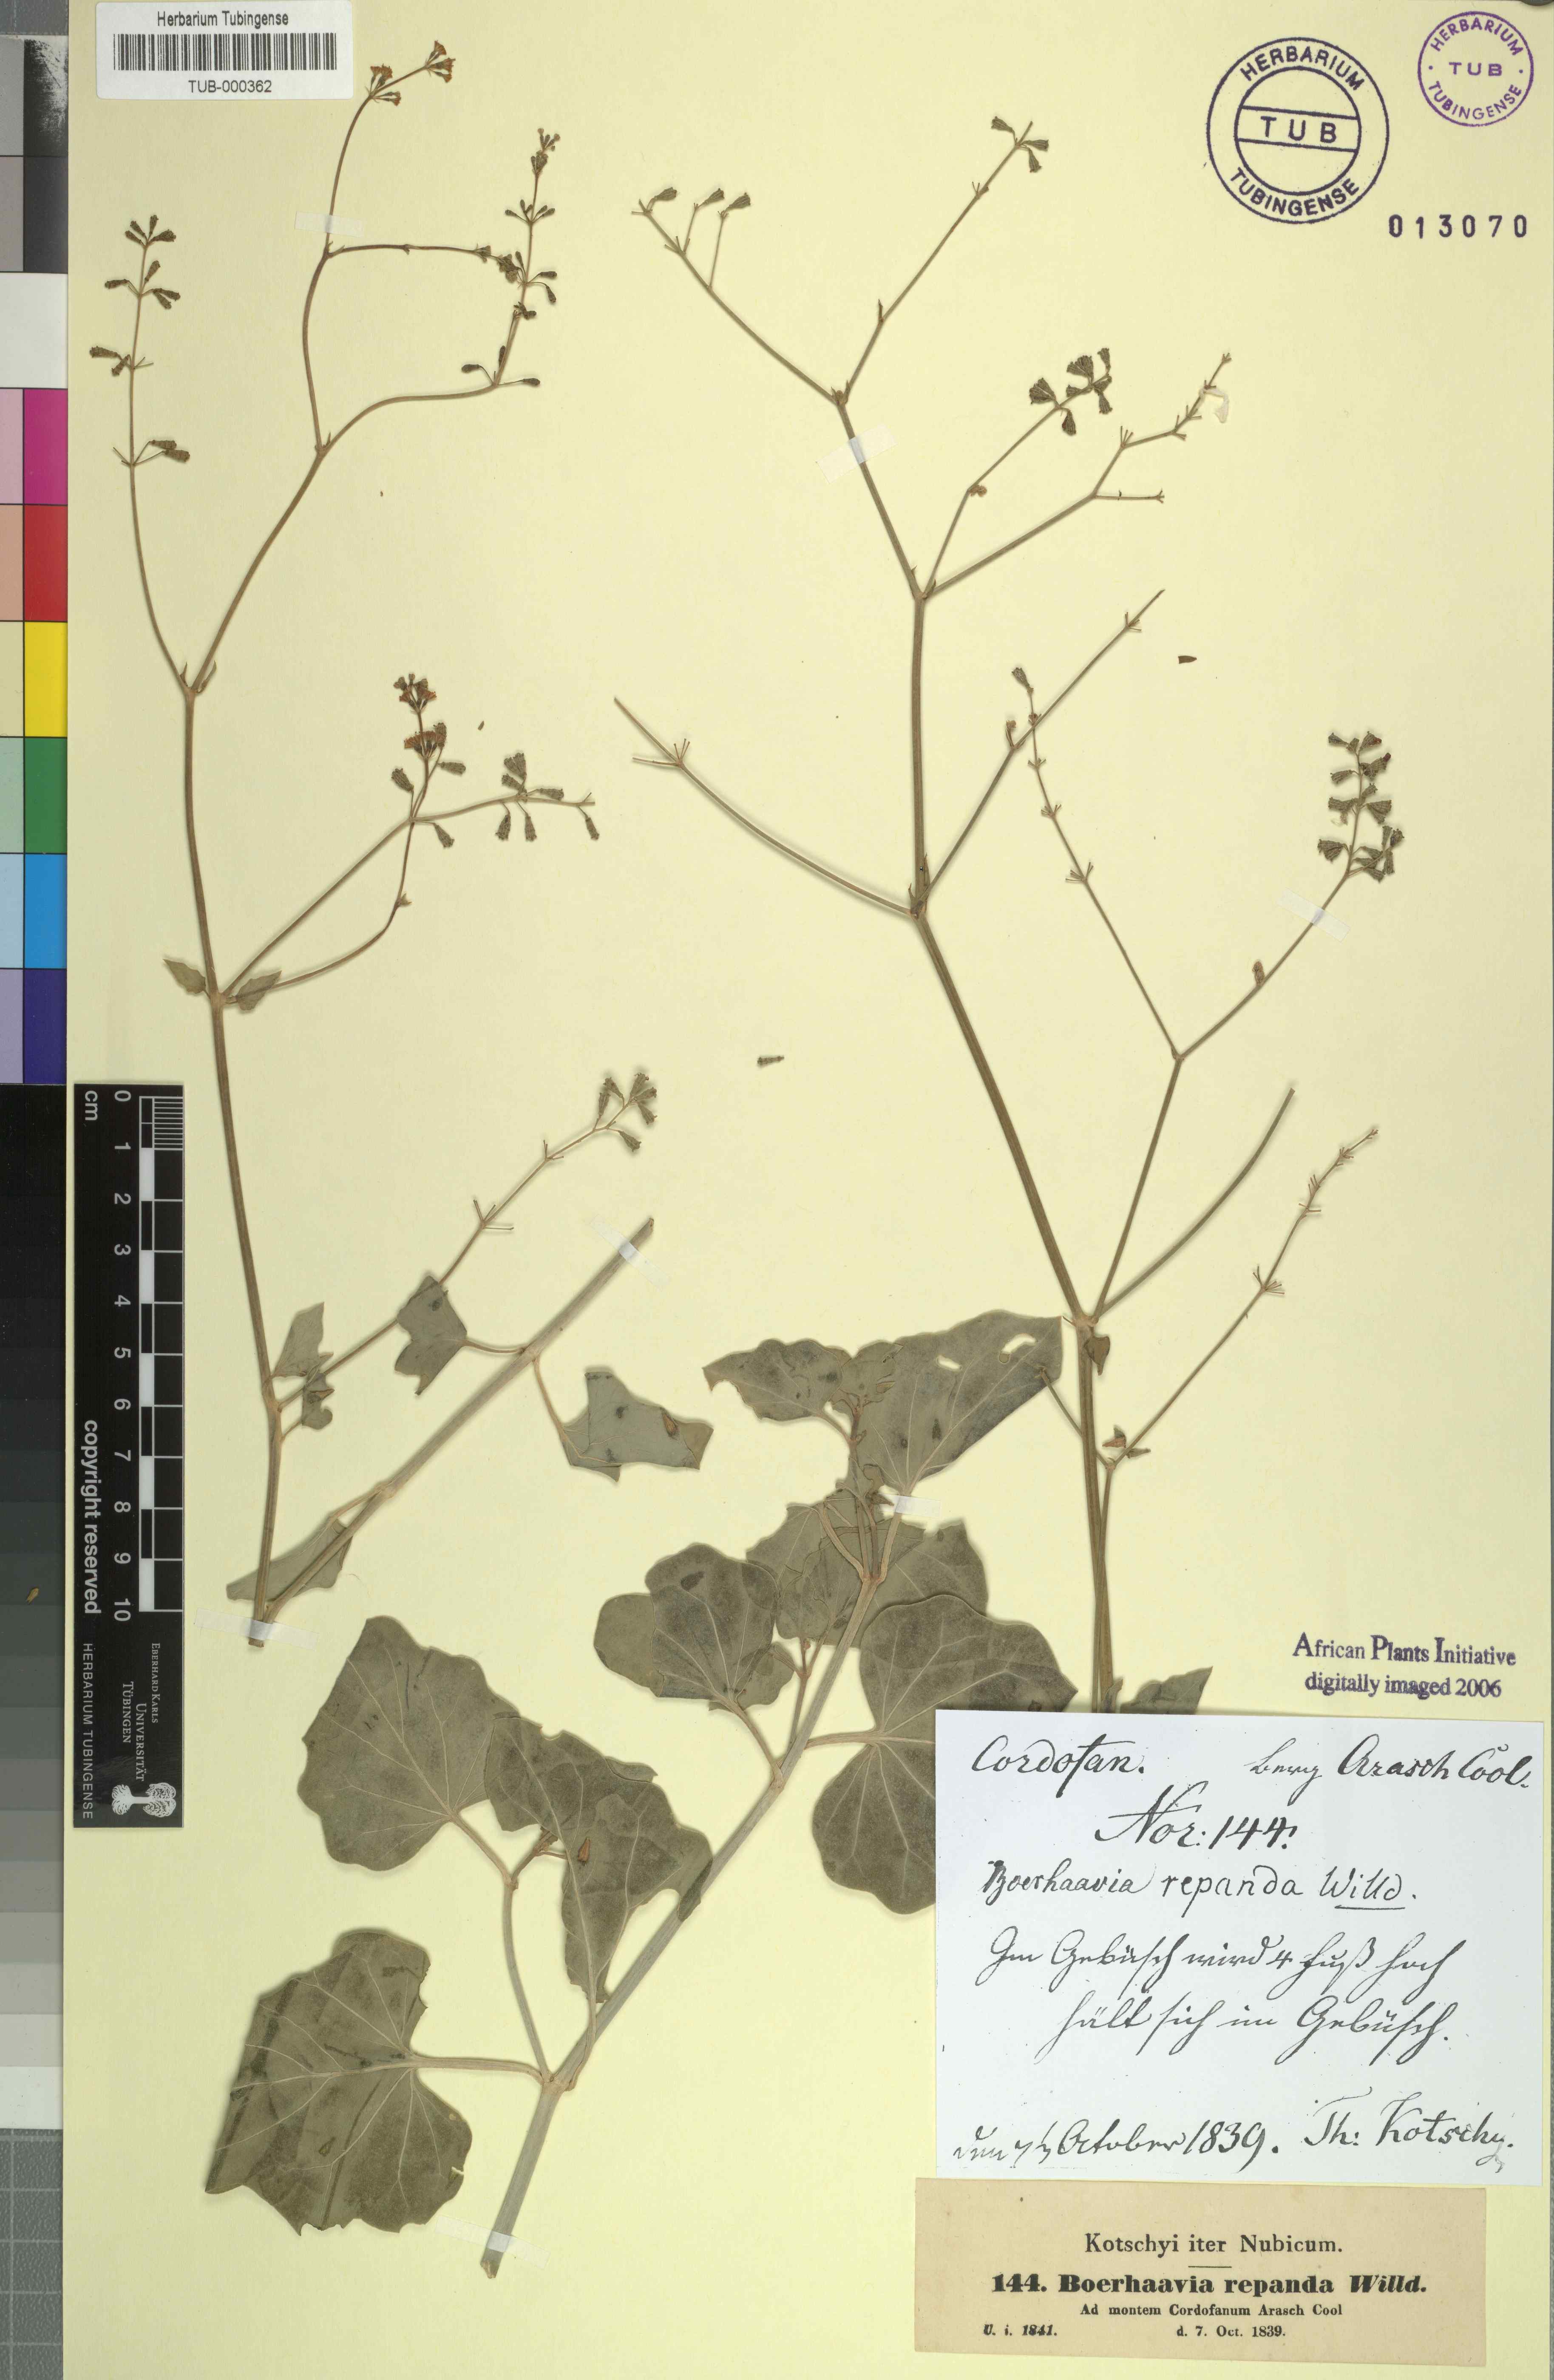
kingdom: Plantae
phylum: Tracheophyta
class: Magnoliopsida
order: Caryophyllales
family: Nyctaginaceae
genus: Commicarpus
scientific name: Commicarpus chinensis
